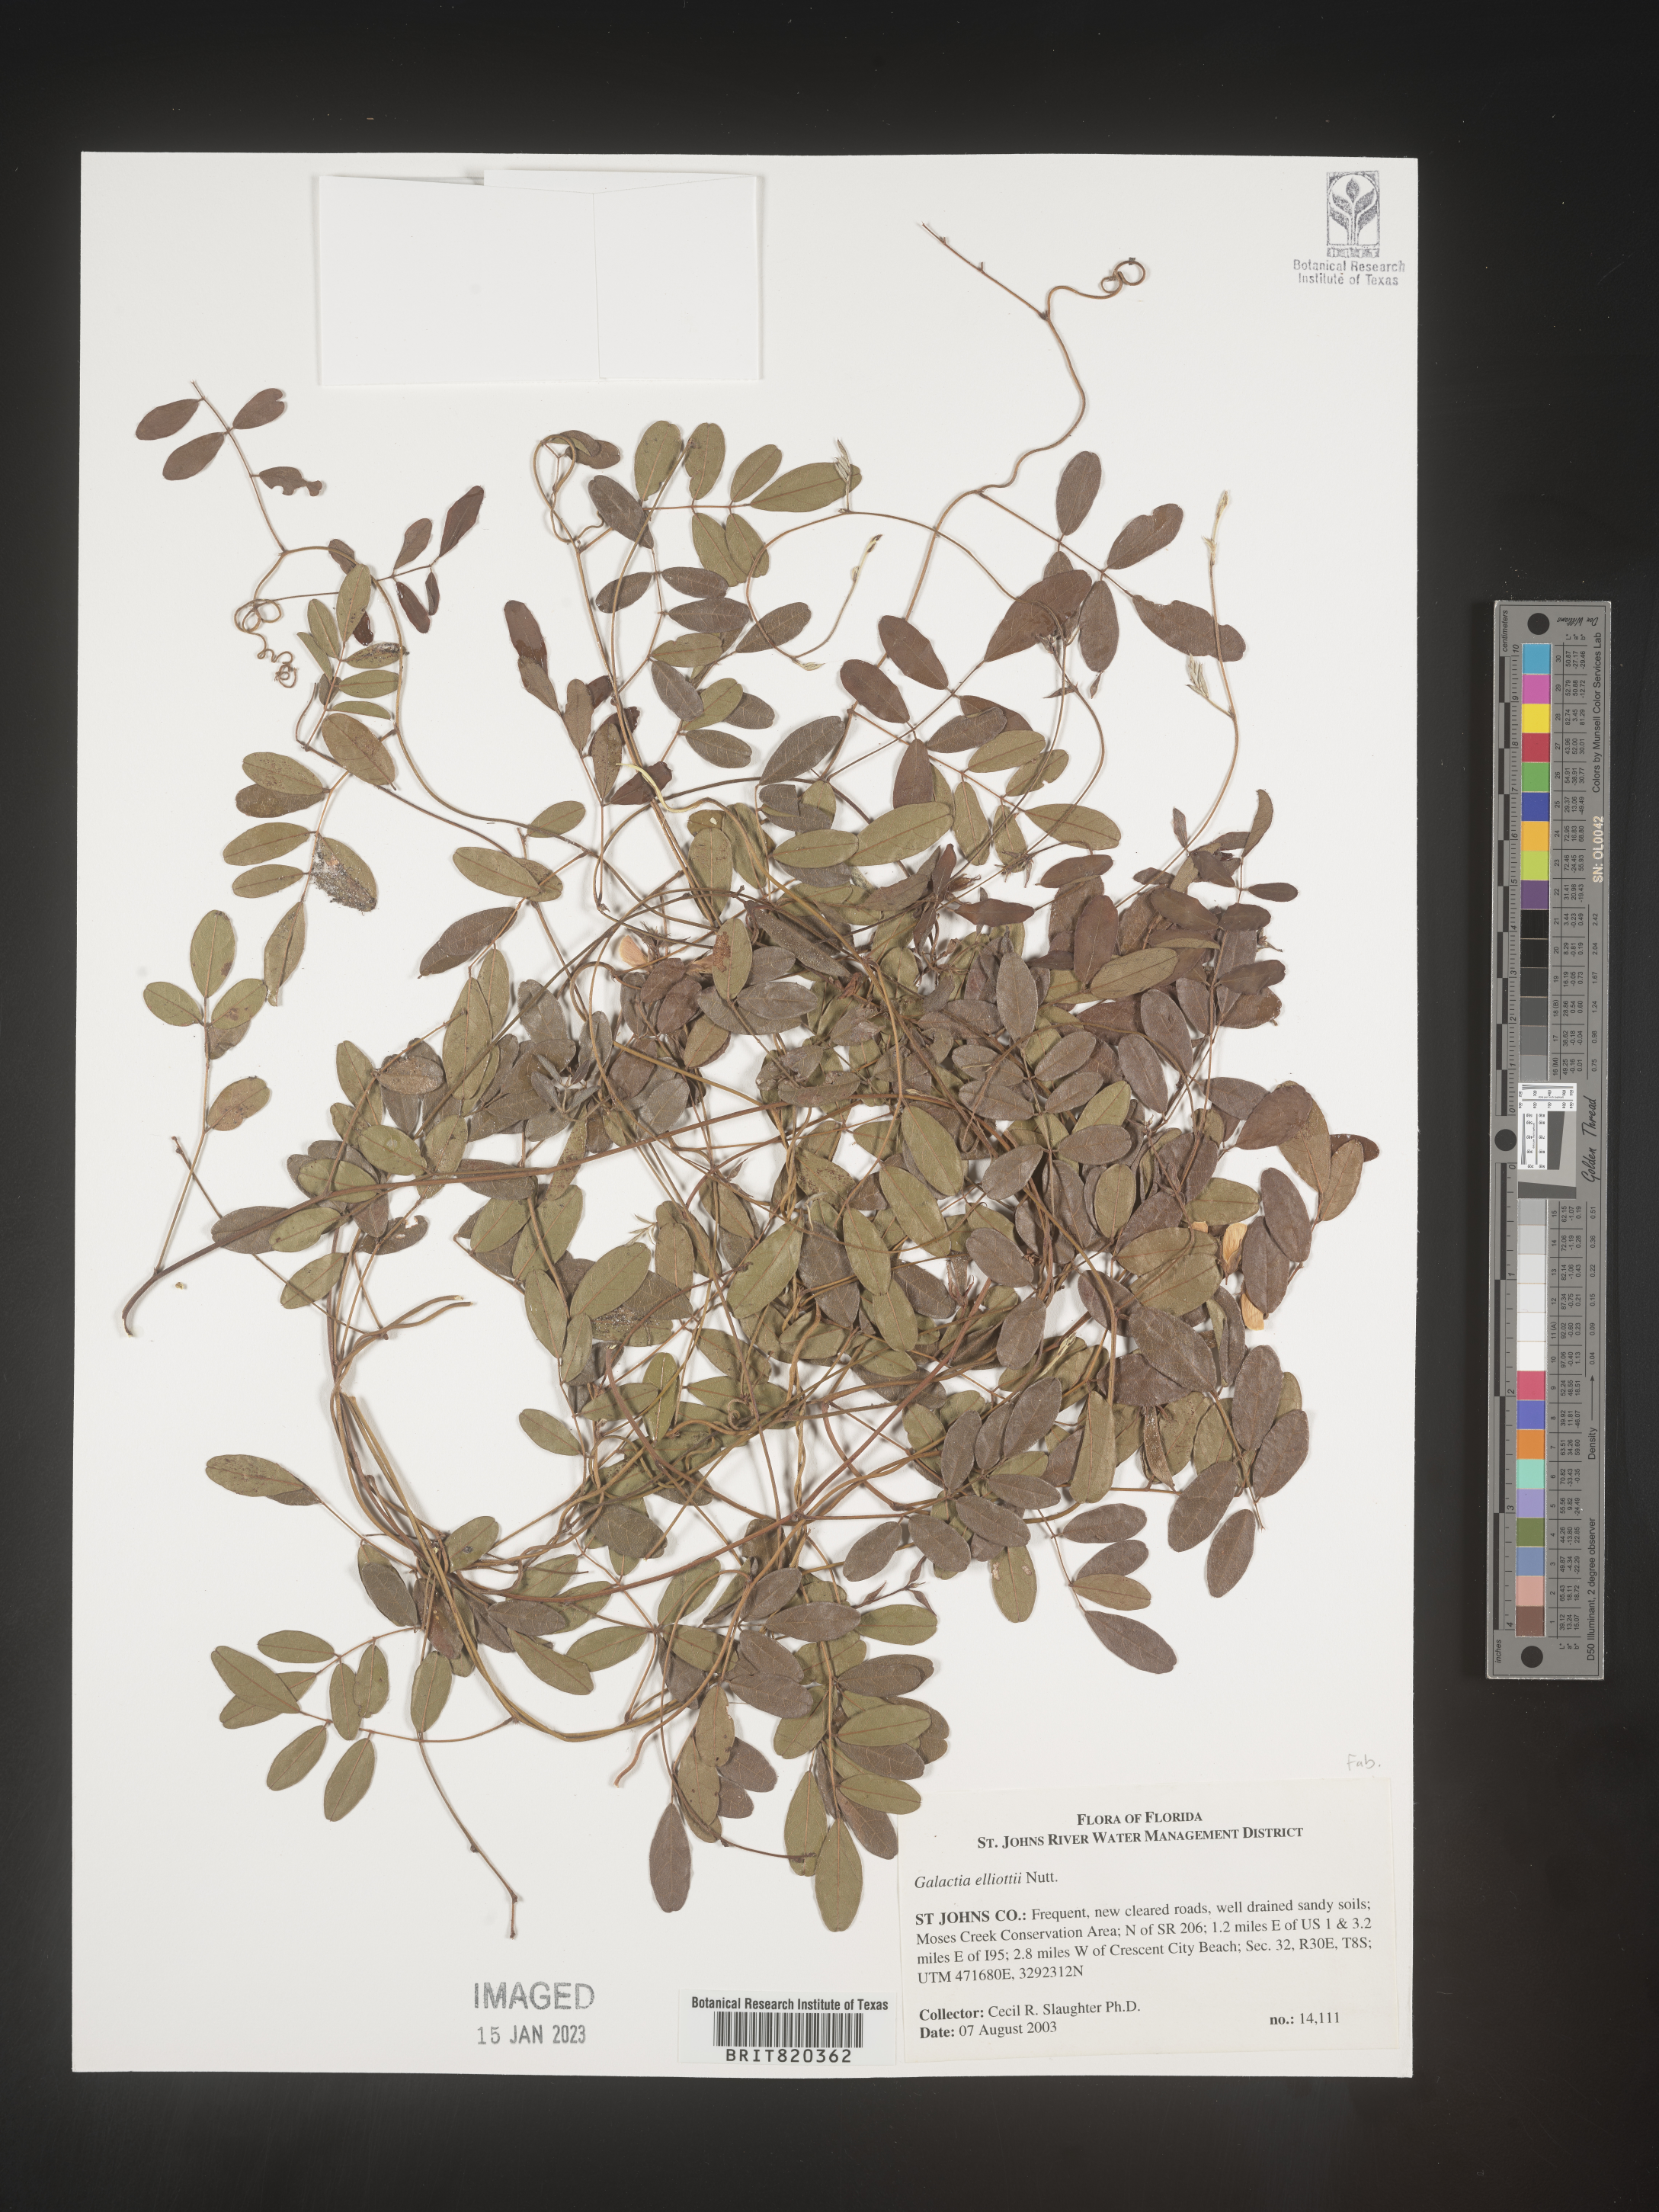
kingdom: Plantae
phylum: Tracheophyta
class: Magnoliopsida
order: Fabales
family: Fabaceae
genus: Galactia
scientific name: Galactia elliottii
